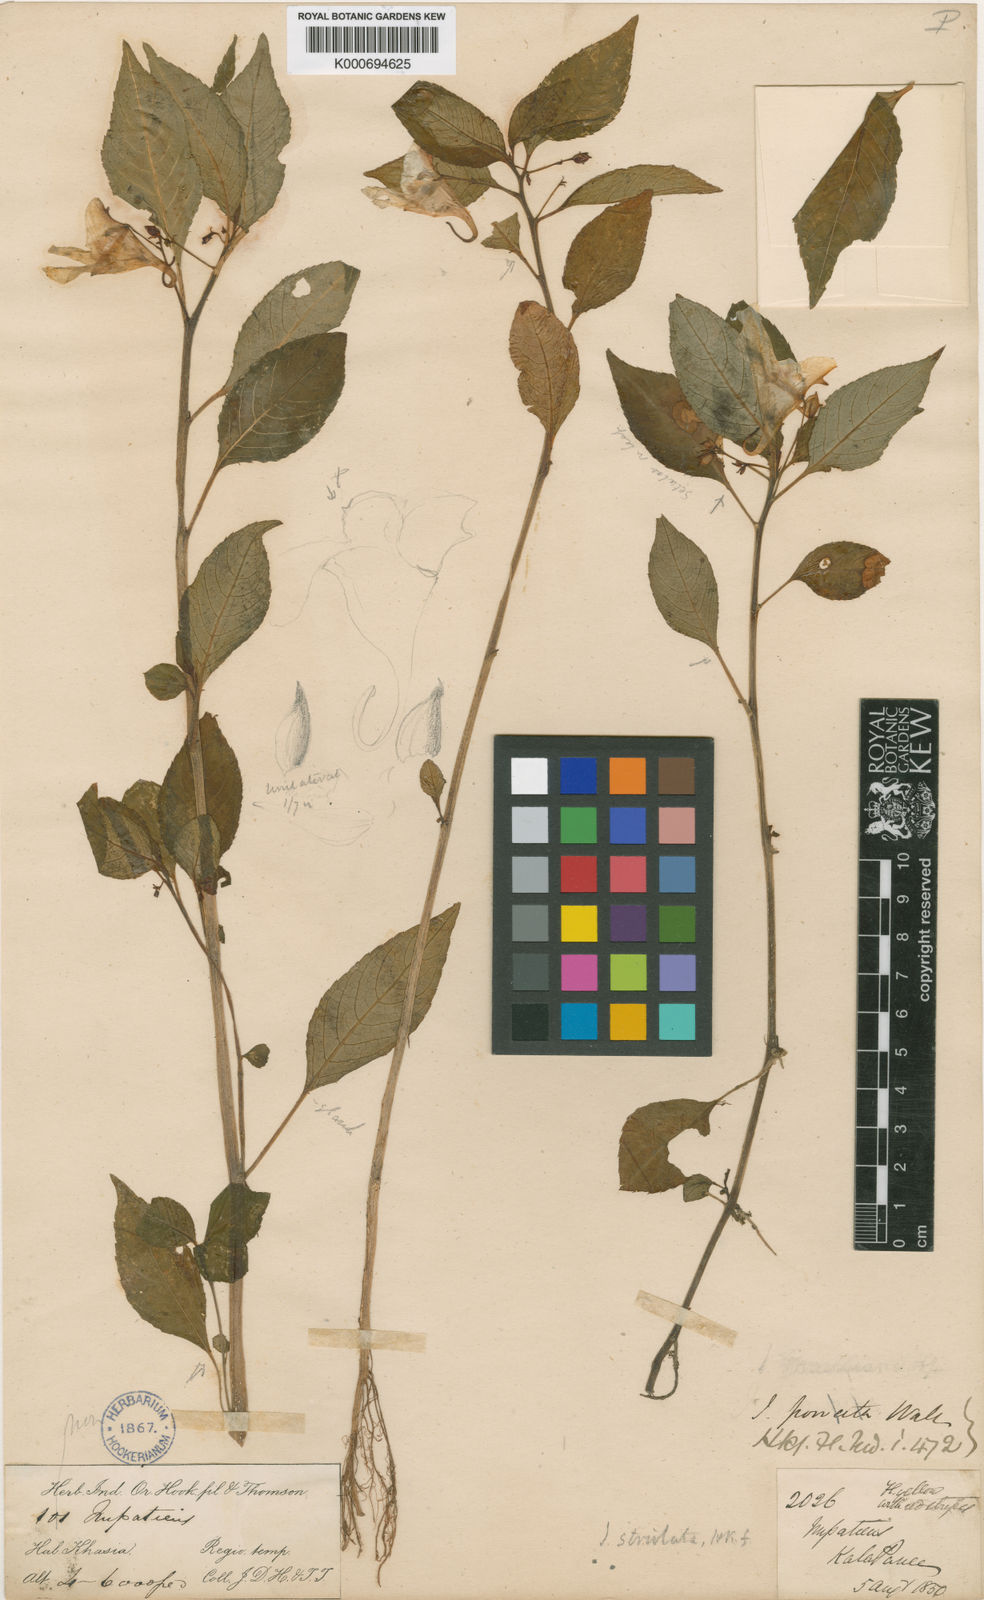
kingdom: Plantae
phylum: Tracheophyta
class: Magnoliopsida
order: Ericales
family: Balsaminaceae
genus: Impatiens
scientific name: Impatiens porrecta
